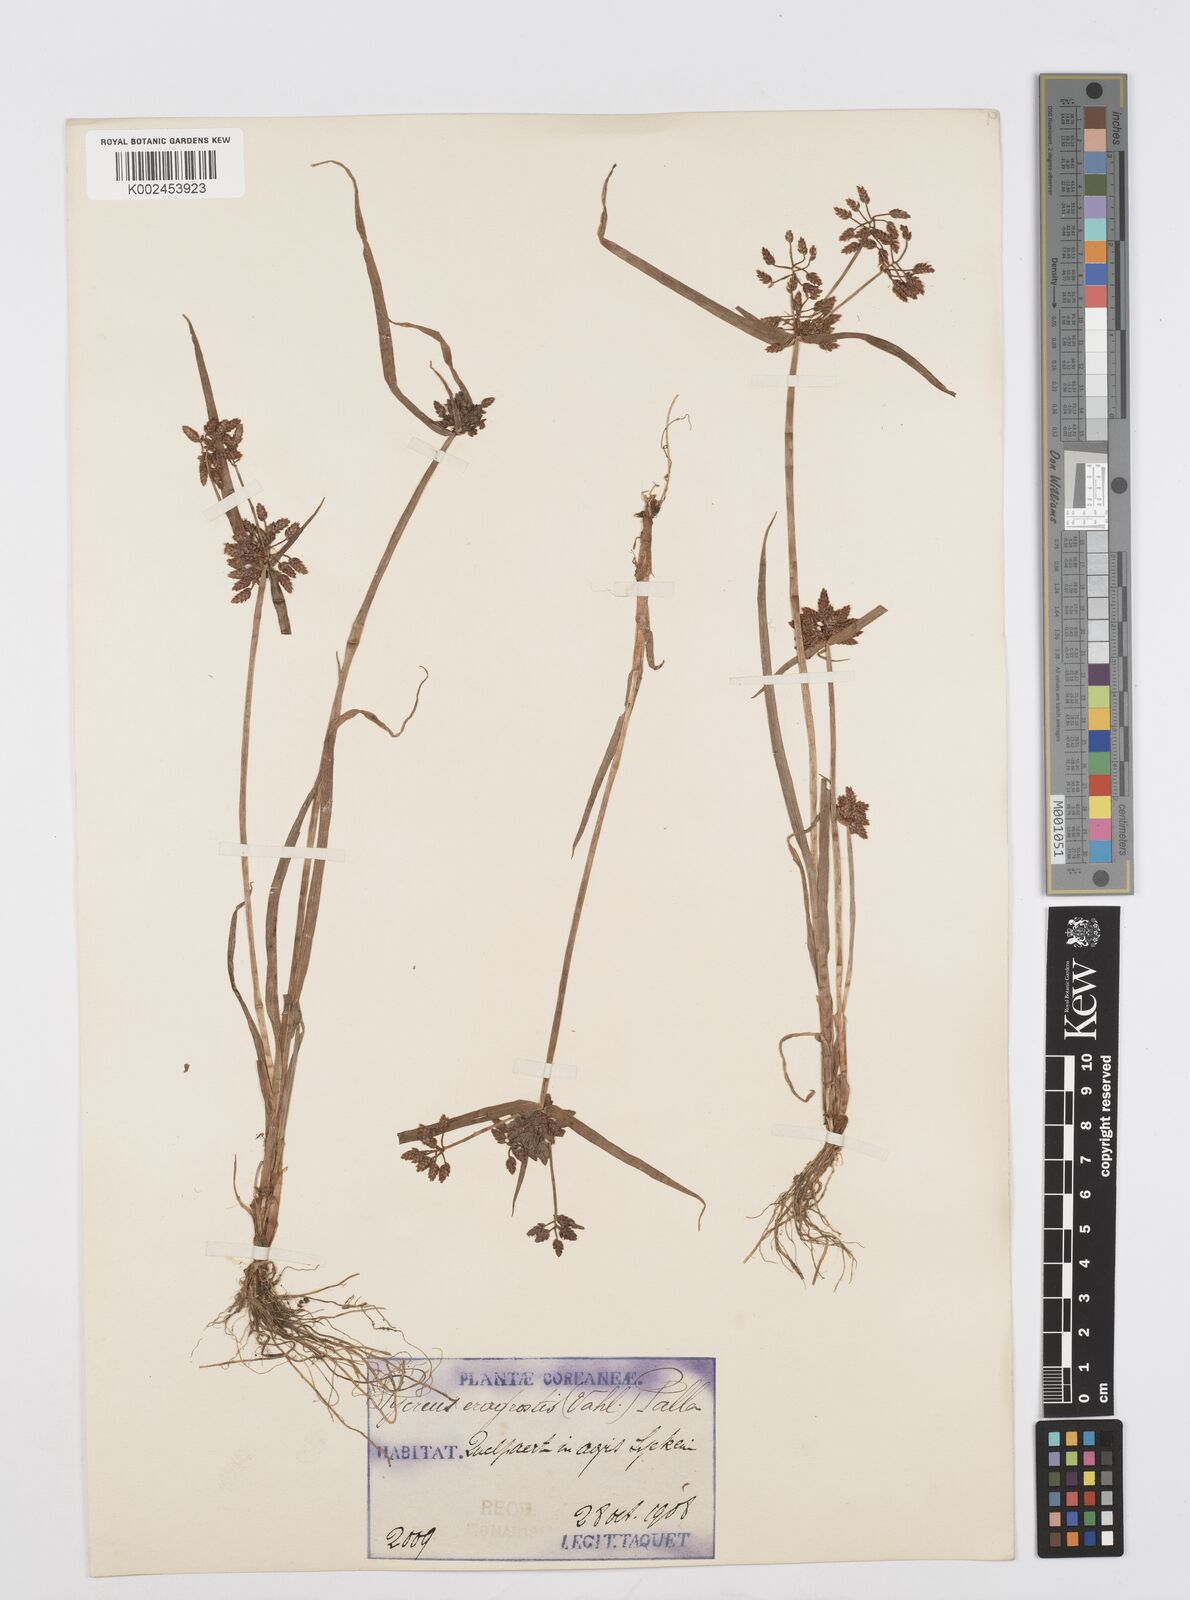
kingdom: Plantae
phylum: Tracheophyta
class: Liliopsida
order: Poales
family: Cyperaceae
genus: Cyperus
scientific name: Cyperus sanguinolentus
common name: Purpleglume flatsedge
